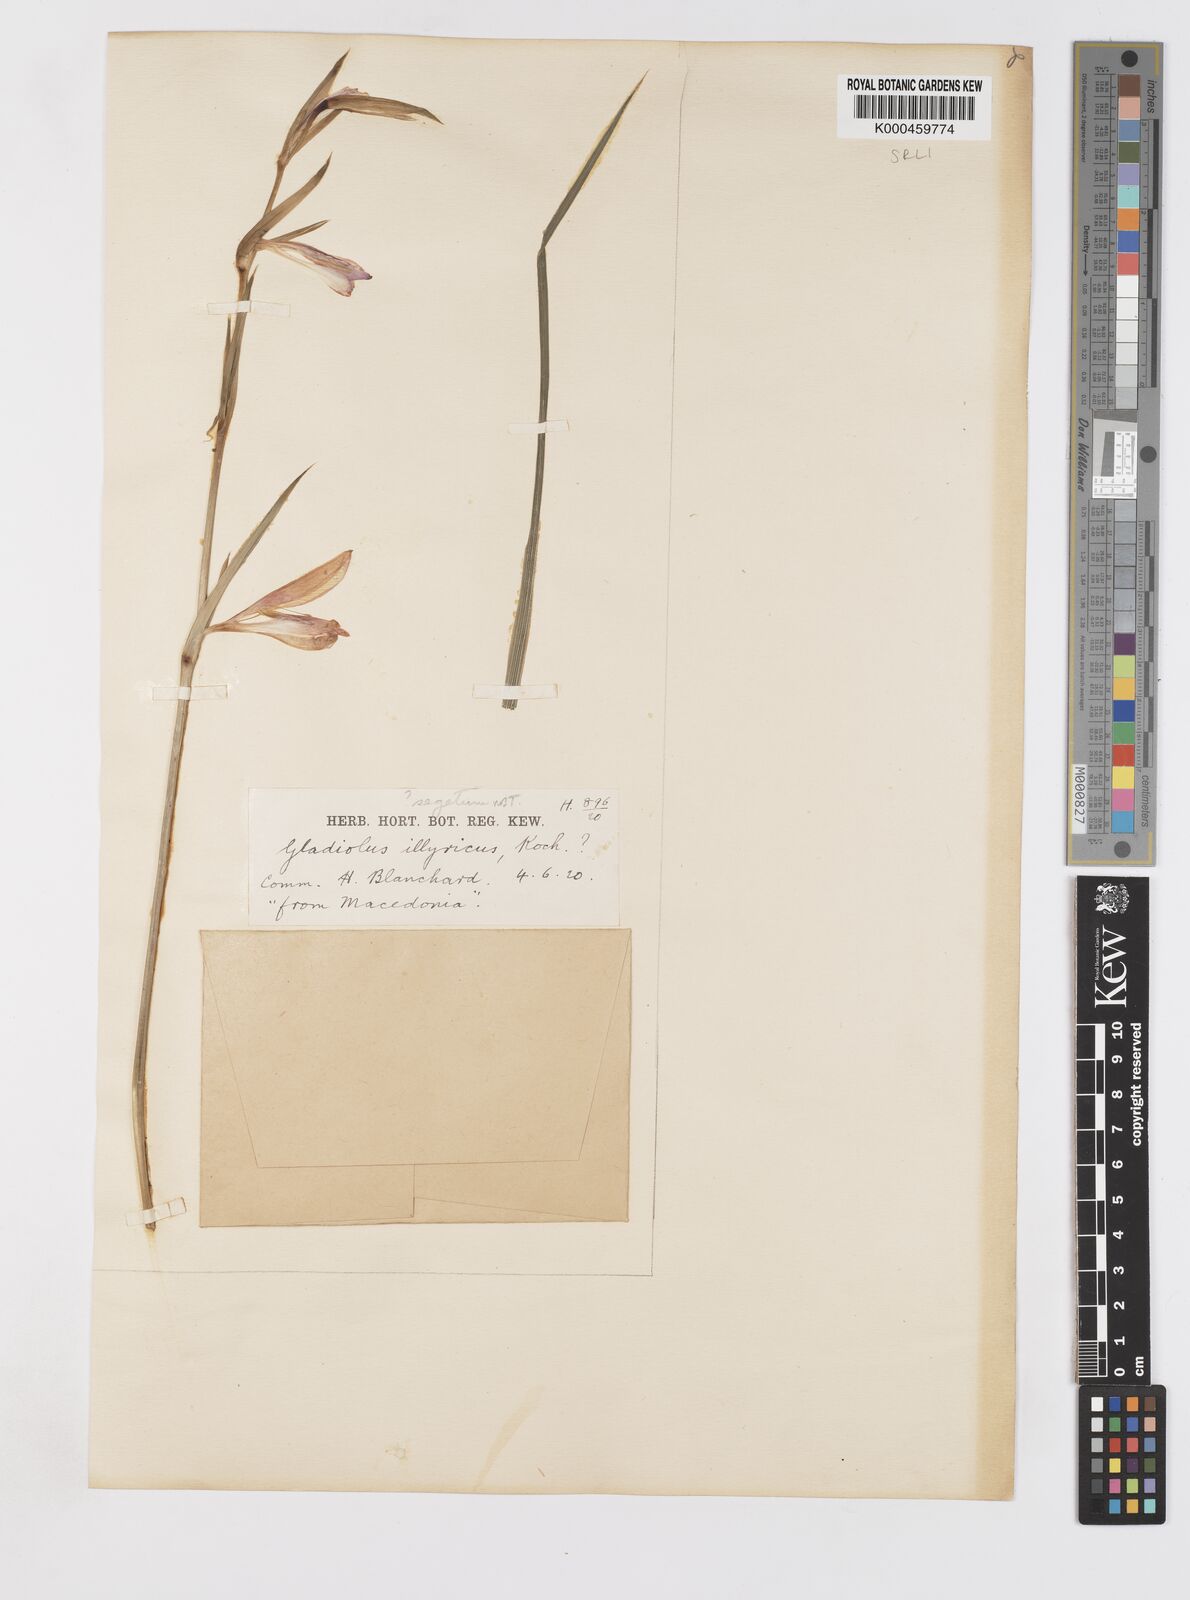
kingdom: Plantae
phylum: Tracheophyta
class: Liliopsida
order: Asparagales
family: Iridaceae
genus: Gladiolus
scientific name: Gladiolus italicus
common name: Field gladiolus
